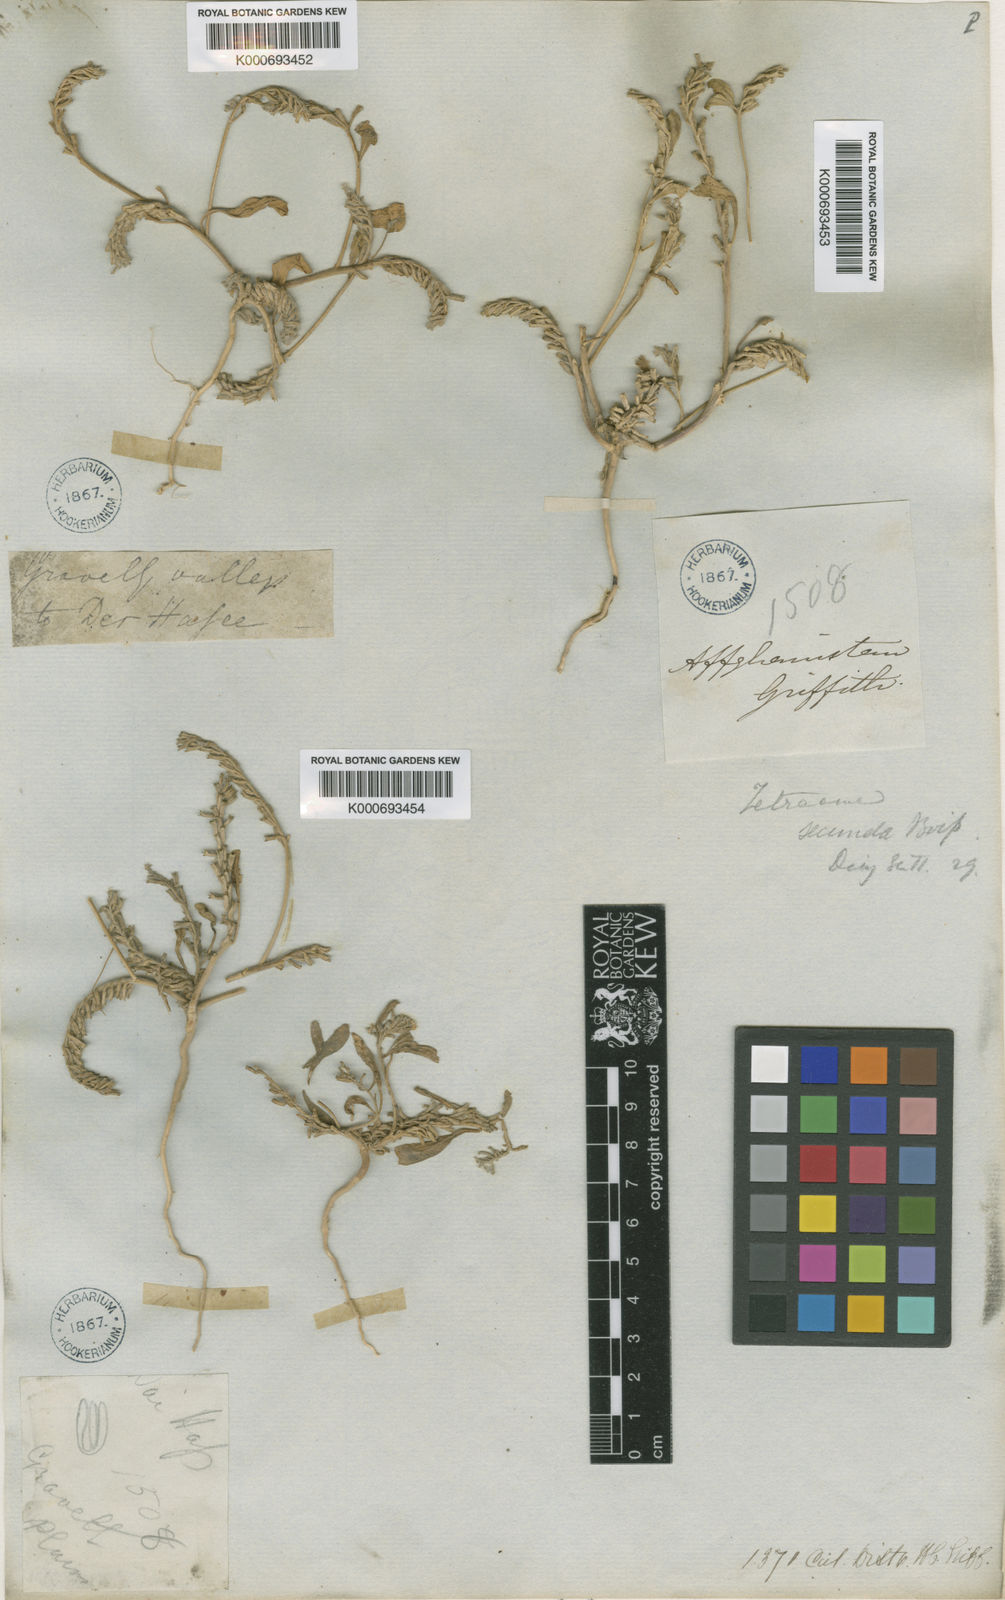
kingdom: Plantae
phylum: Tracheophyta
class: Magnoliopsida
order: Brassicales
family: Brassicaceae
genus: Tetracme
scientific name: Tetracme secunda
